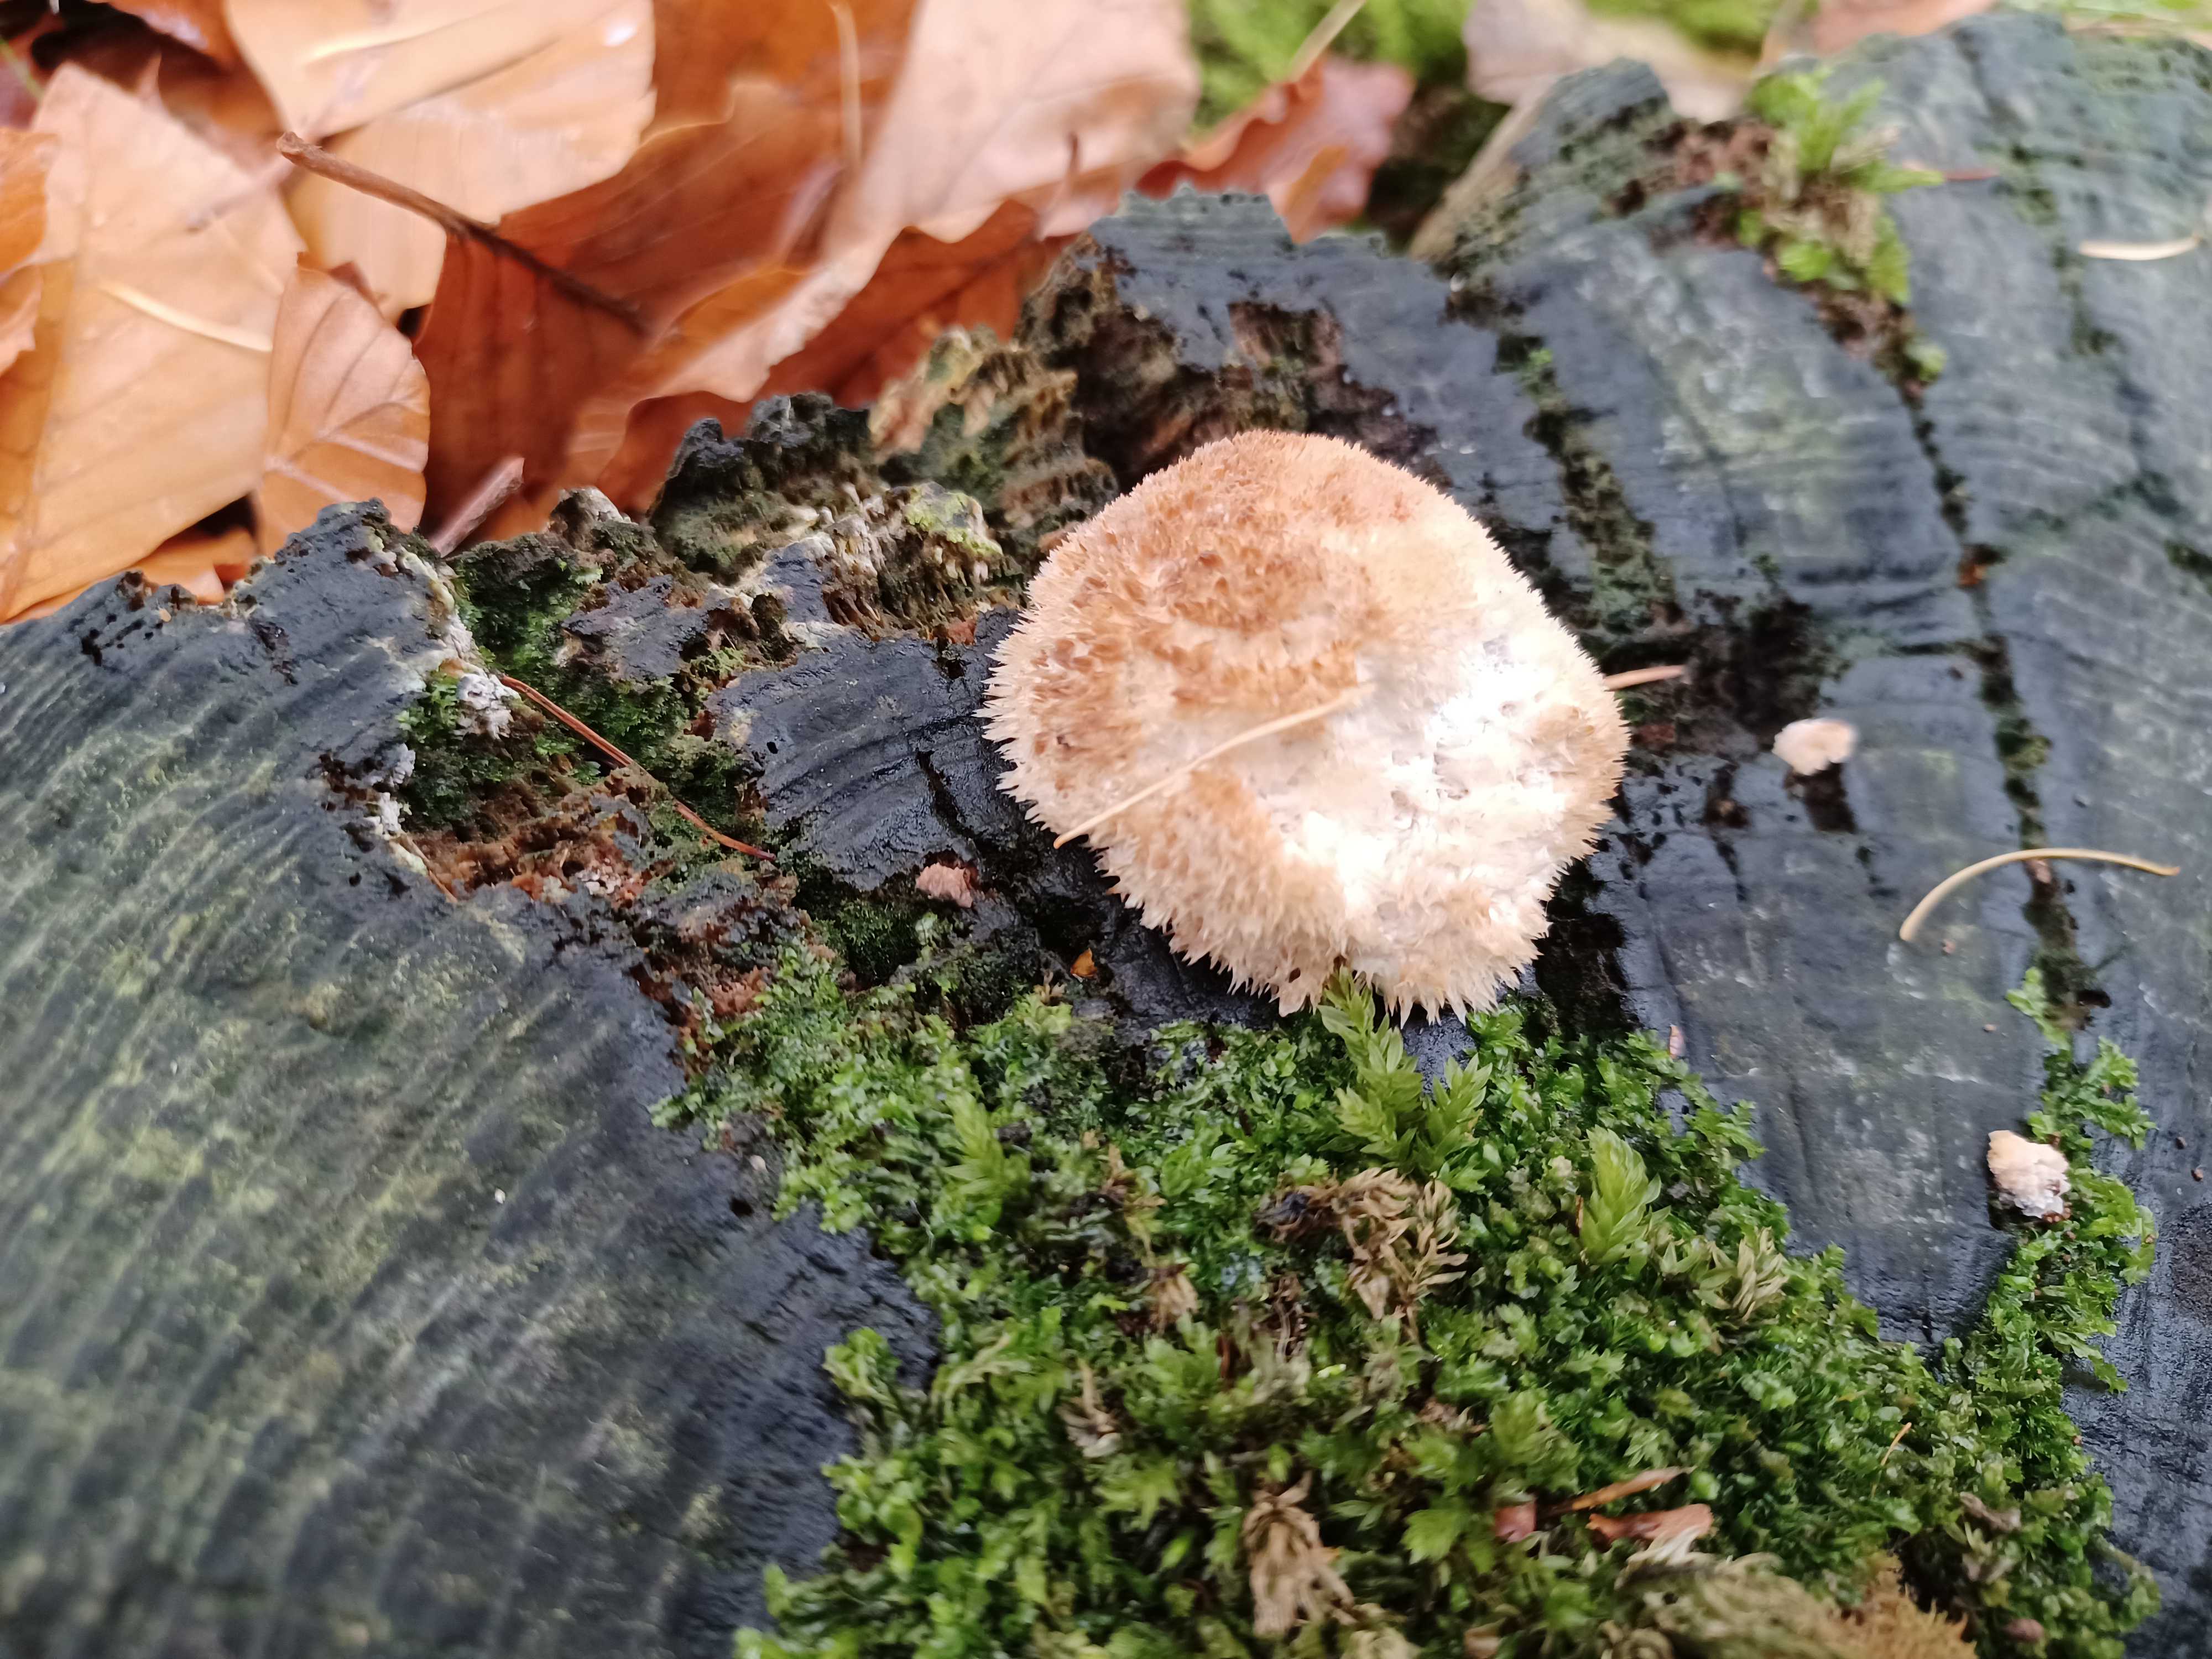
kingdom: Fungi
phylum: Basidiomycota
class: Agaricomycetes
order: Polyporales
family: Dacryobolaceae
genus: Postia
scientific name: Postia ptychogaster
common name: støvende kødporesvamp
